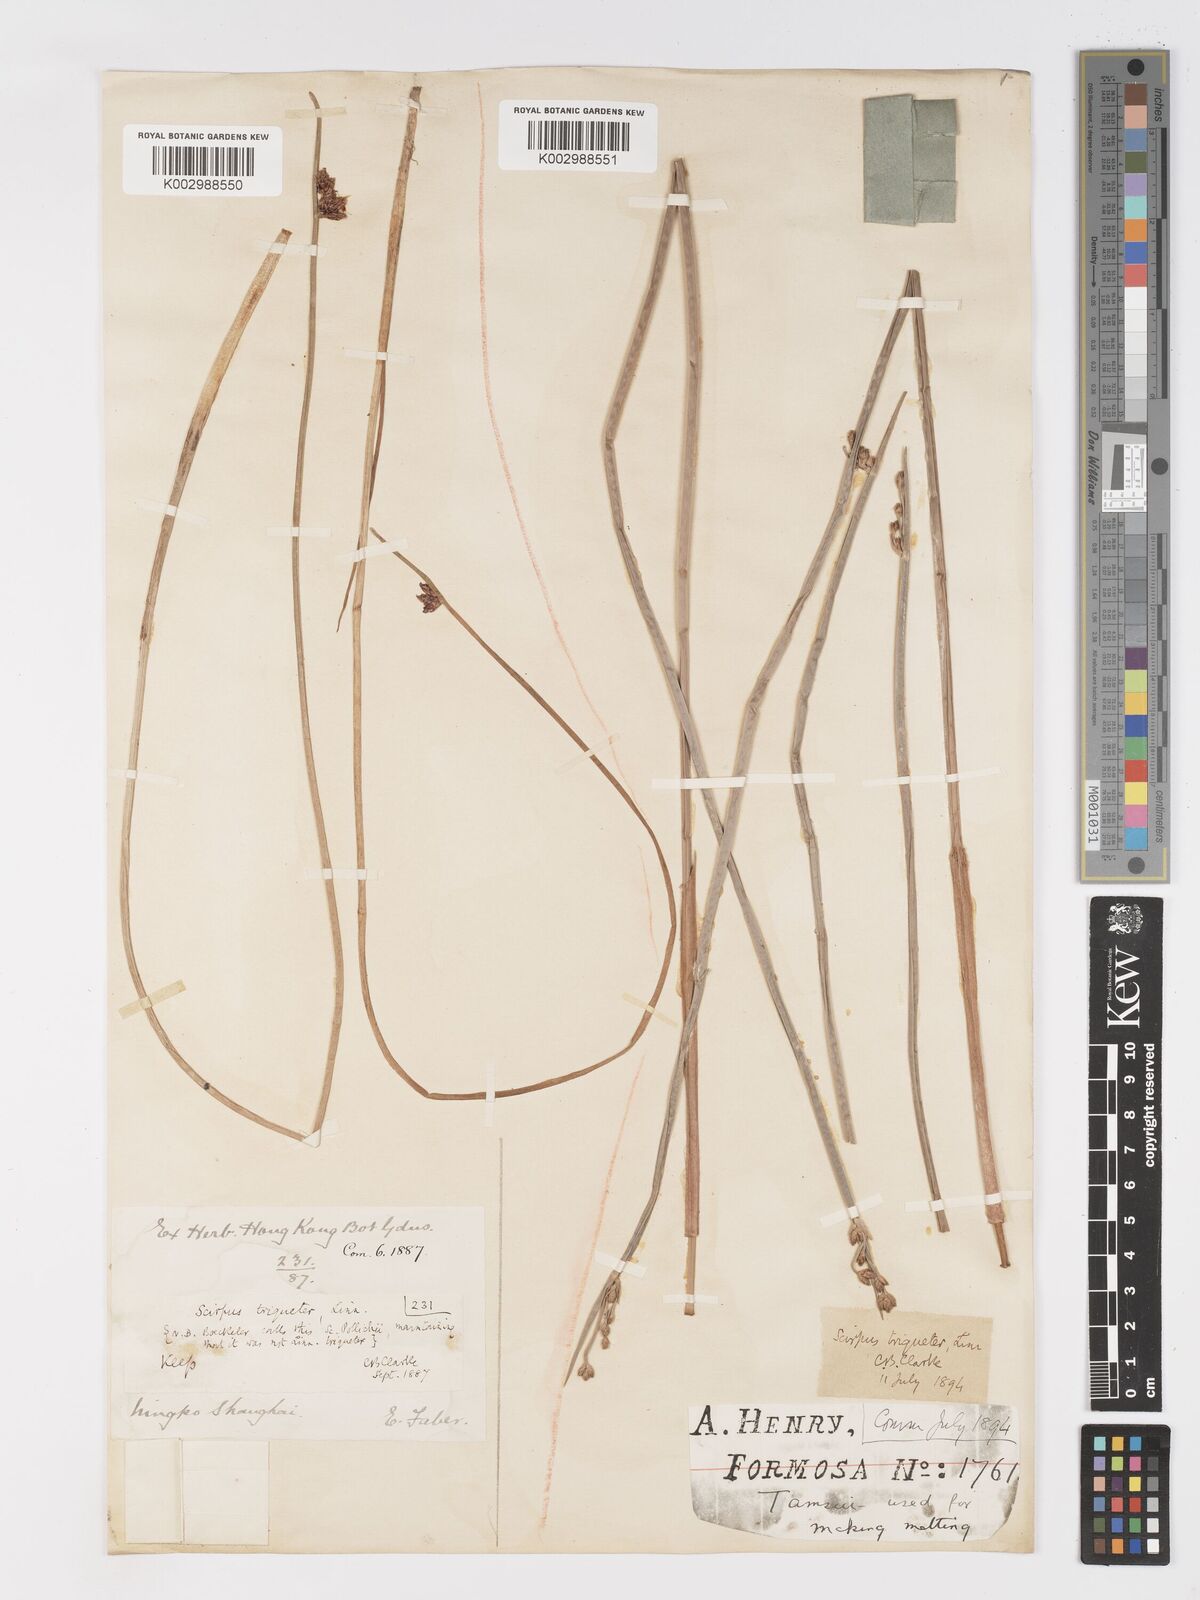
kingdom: Plantae
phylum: Tracheophyta
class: Liliopsida
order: Poales
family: Cyperaceae
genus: Schoenoplectus
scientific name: Schoenoplectus triqueter
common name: Triangular club-rush
